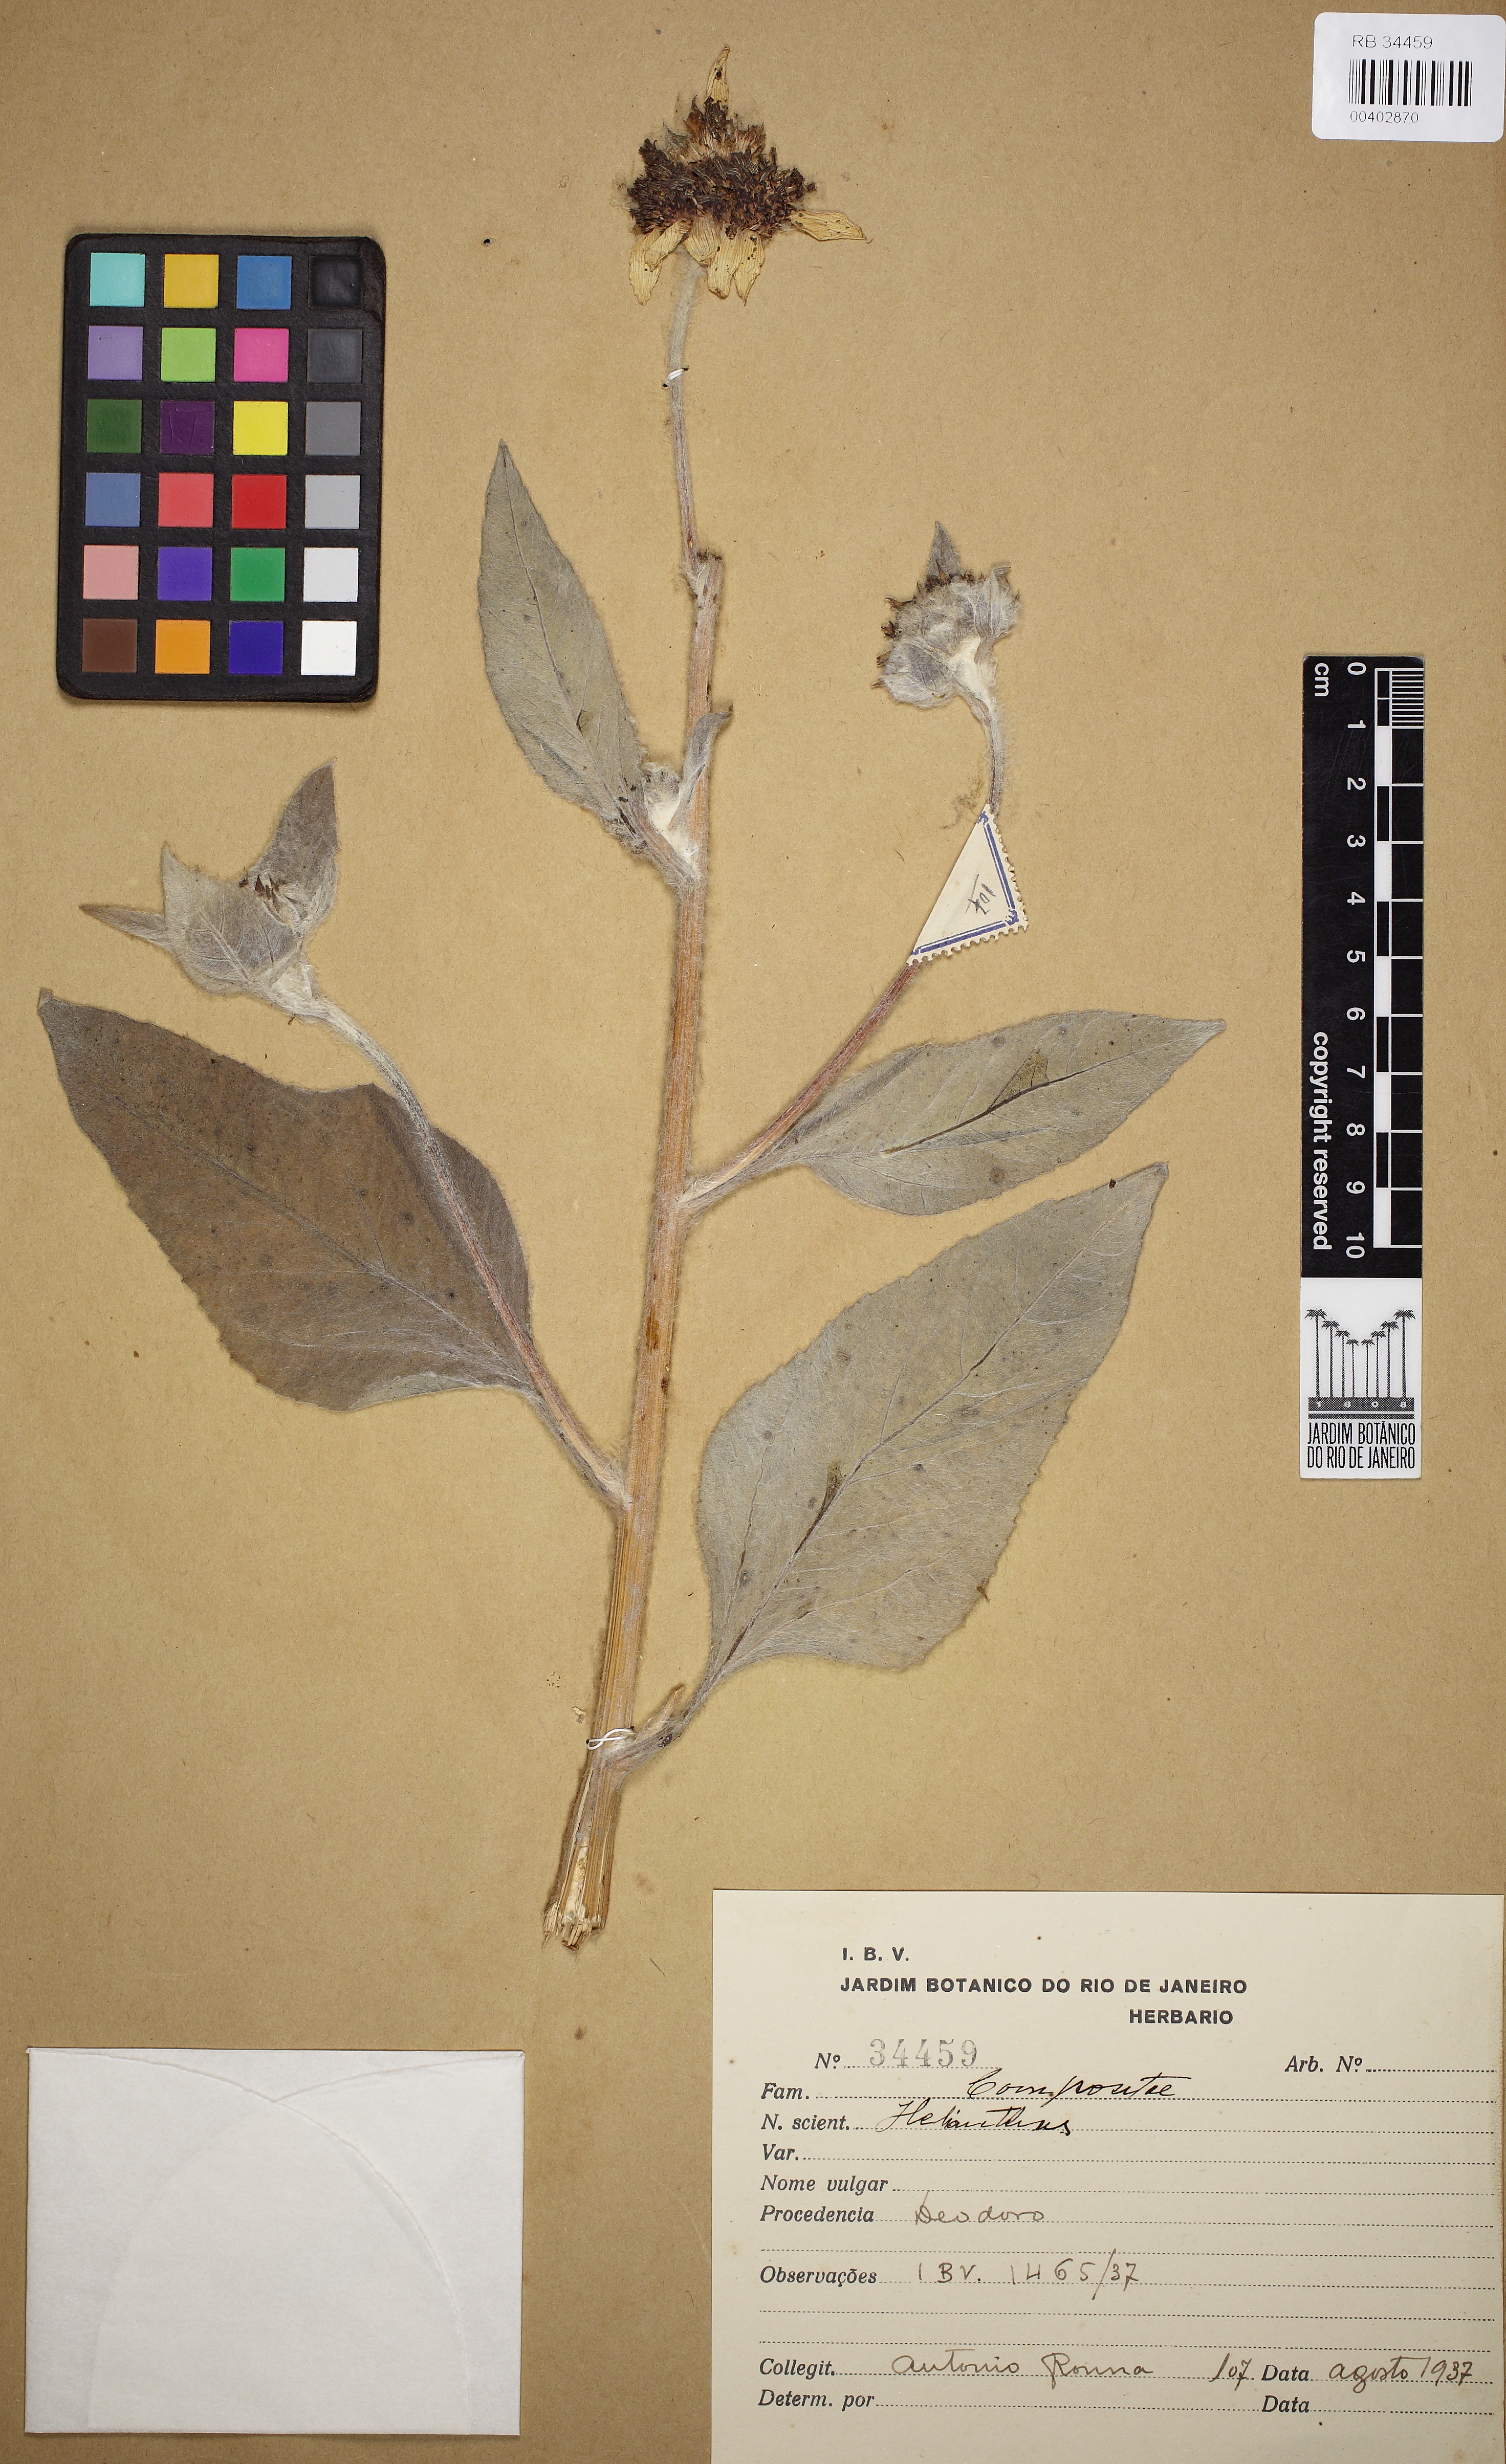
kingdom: Plantae
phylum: Tracheophyta
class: Magnoliopsida
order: Asterales
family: Asteraceae
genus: Helianthus
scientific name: Helianthus
